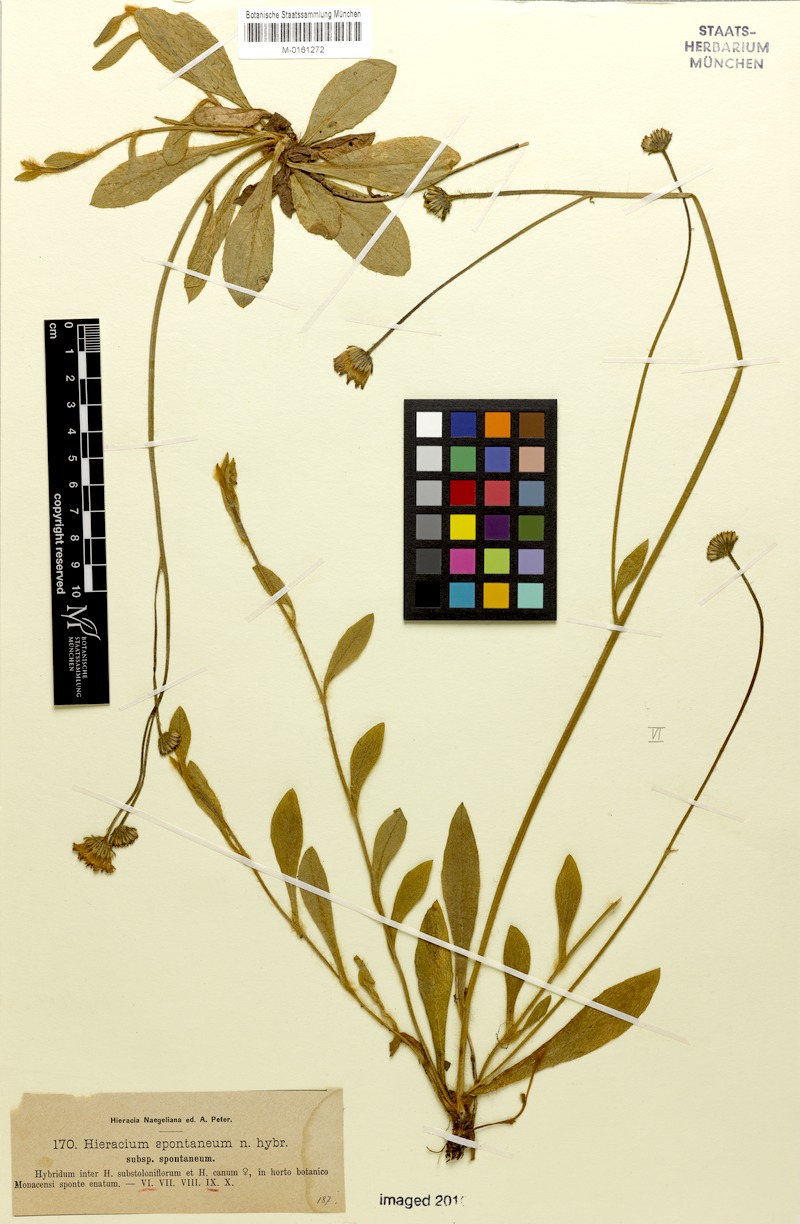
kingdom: Plantae
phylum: Tracheophyta
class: Magnoliopsida
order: Asterales
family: Asteraceae
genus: Hieracium
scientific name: Hieracium spontaneum
